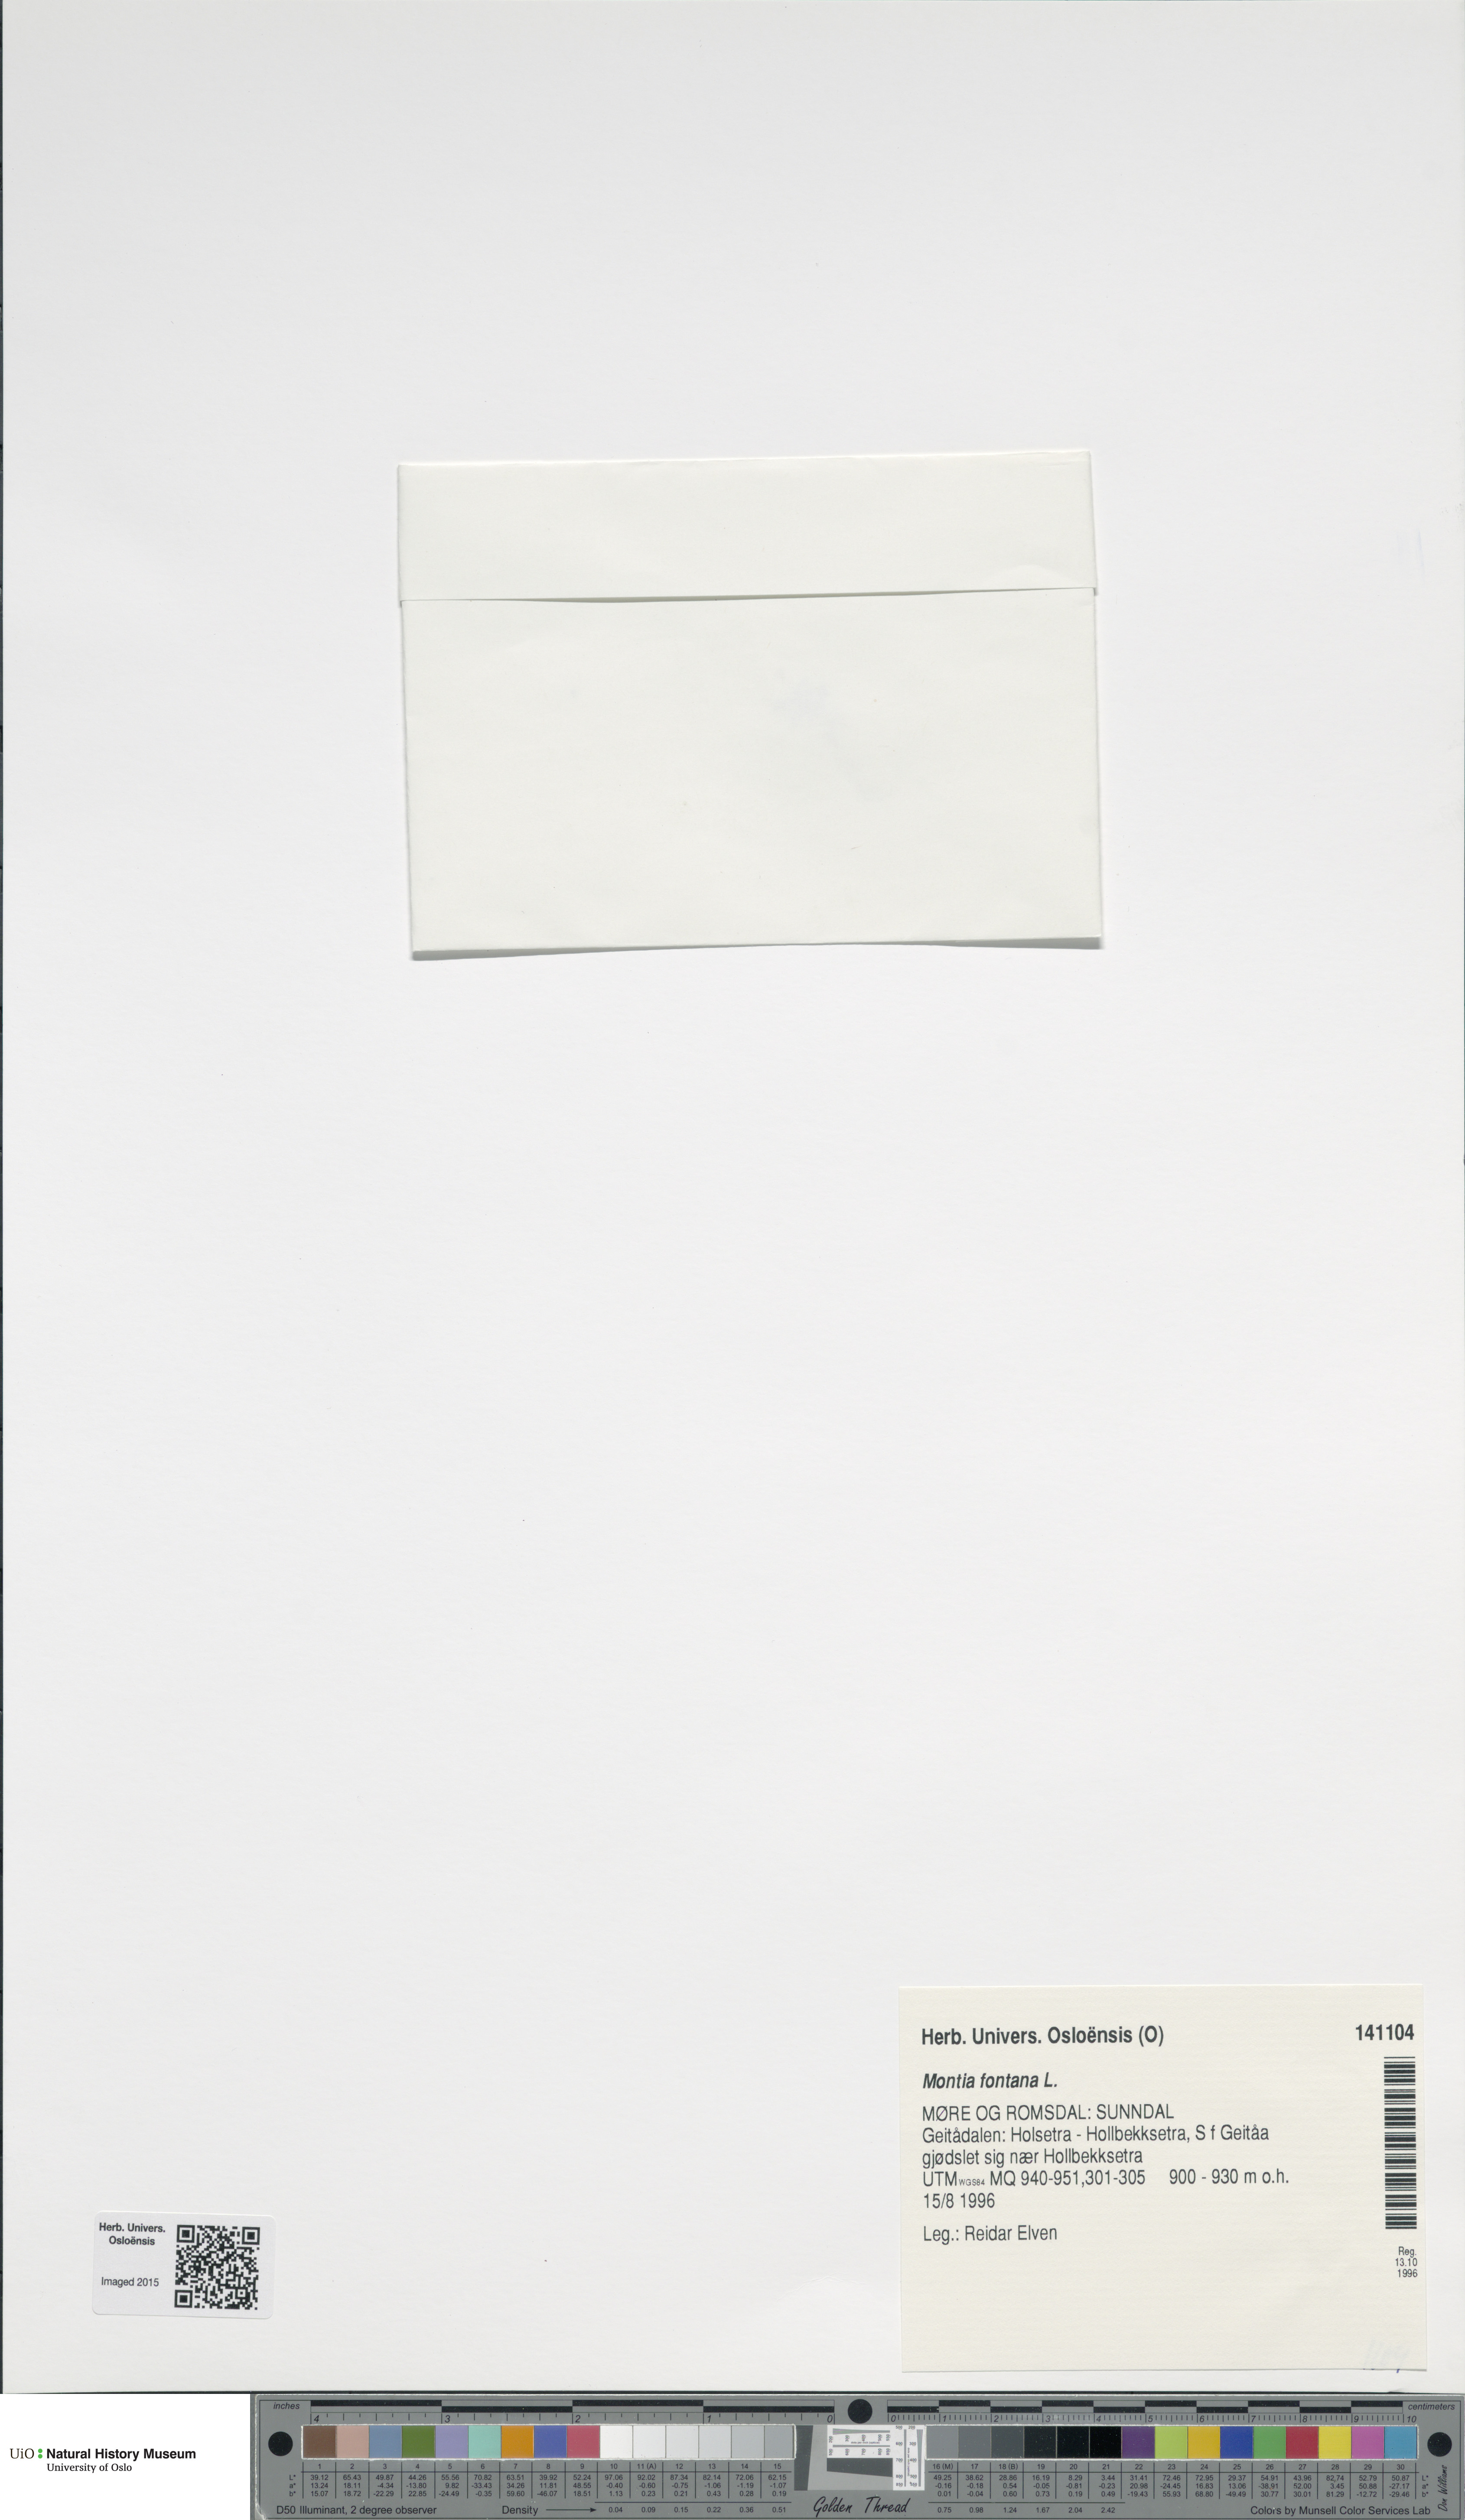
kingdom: Plantae
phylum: Tracheophyta
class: Magnoliopsida
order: Caryophyllales
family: Montiaceae
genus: Montia
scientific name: Montia fontana
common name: Blinks
